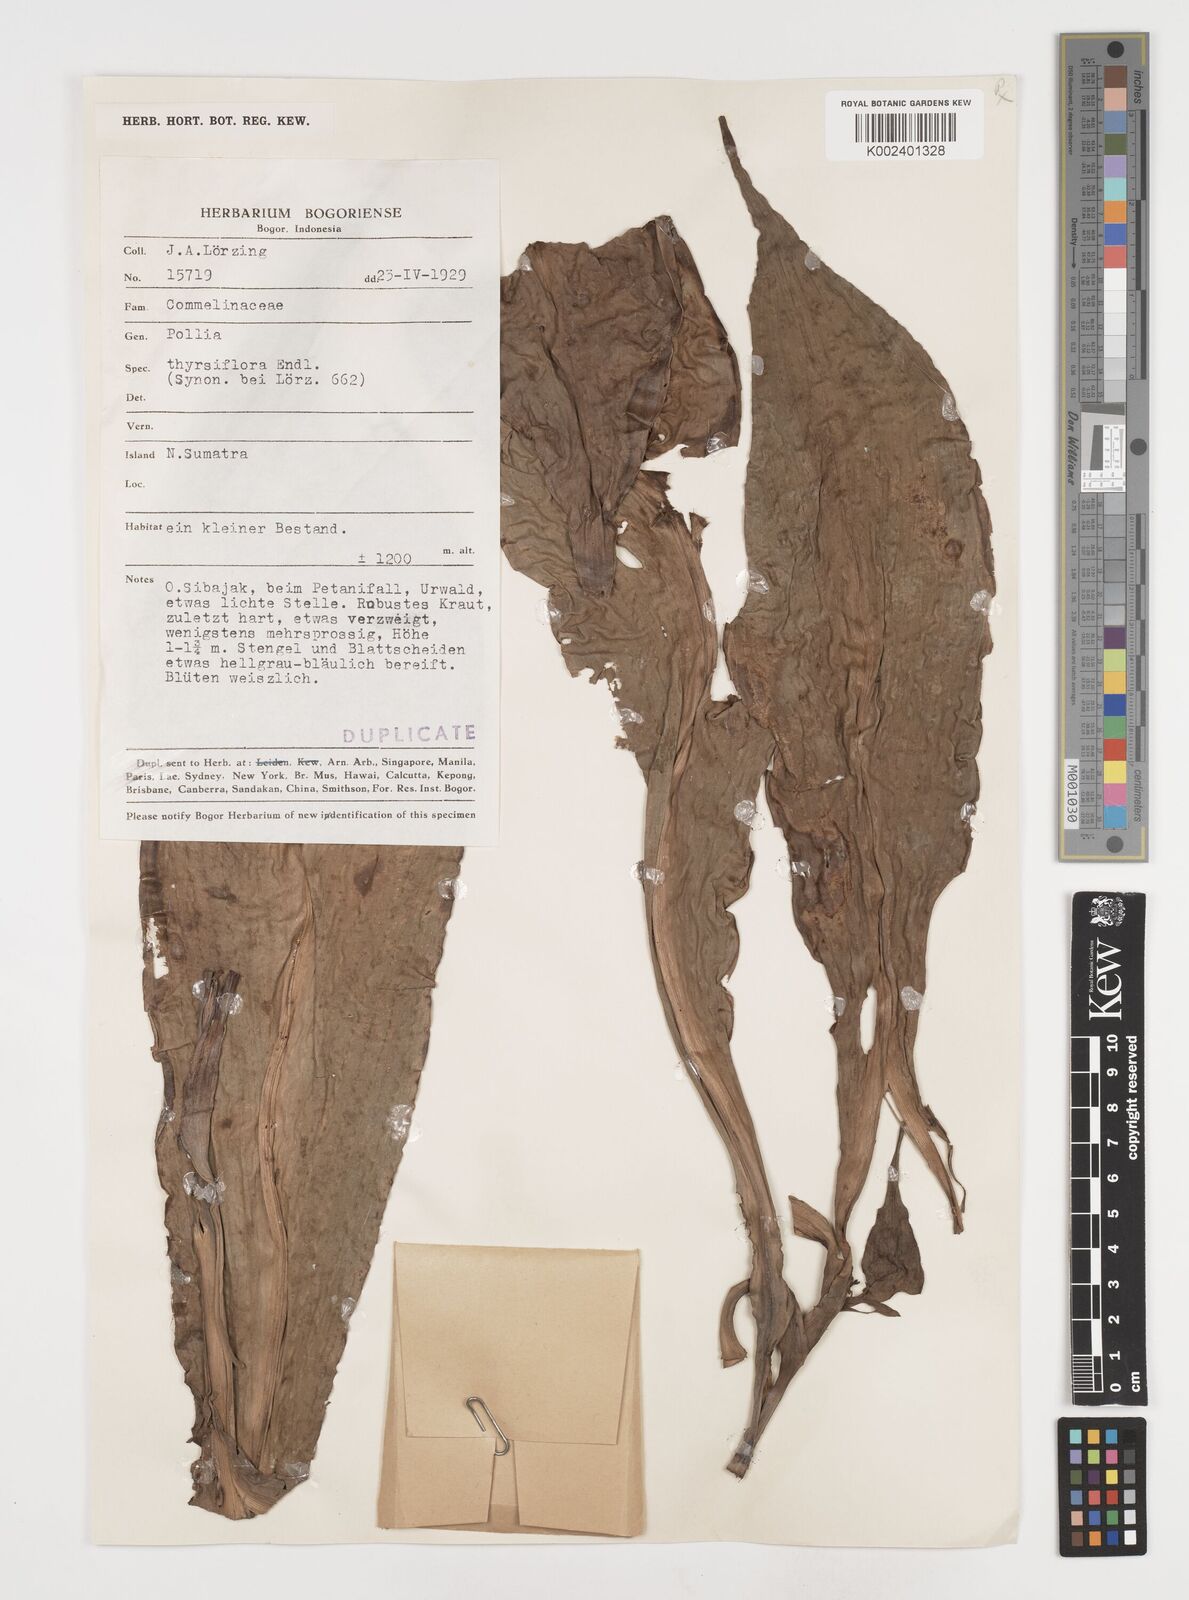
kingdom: Plantae
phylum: Tracheophyta
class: Liliopsida
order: Commelinales
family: Commelinaceae
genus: Pollia
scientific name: Pollia thyrsiflora
